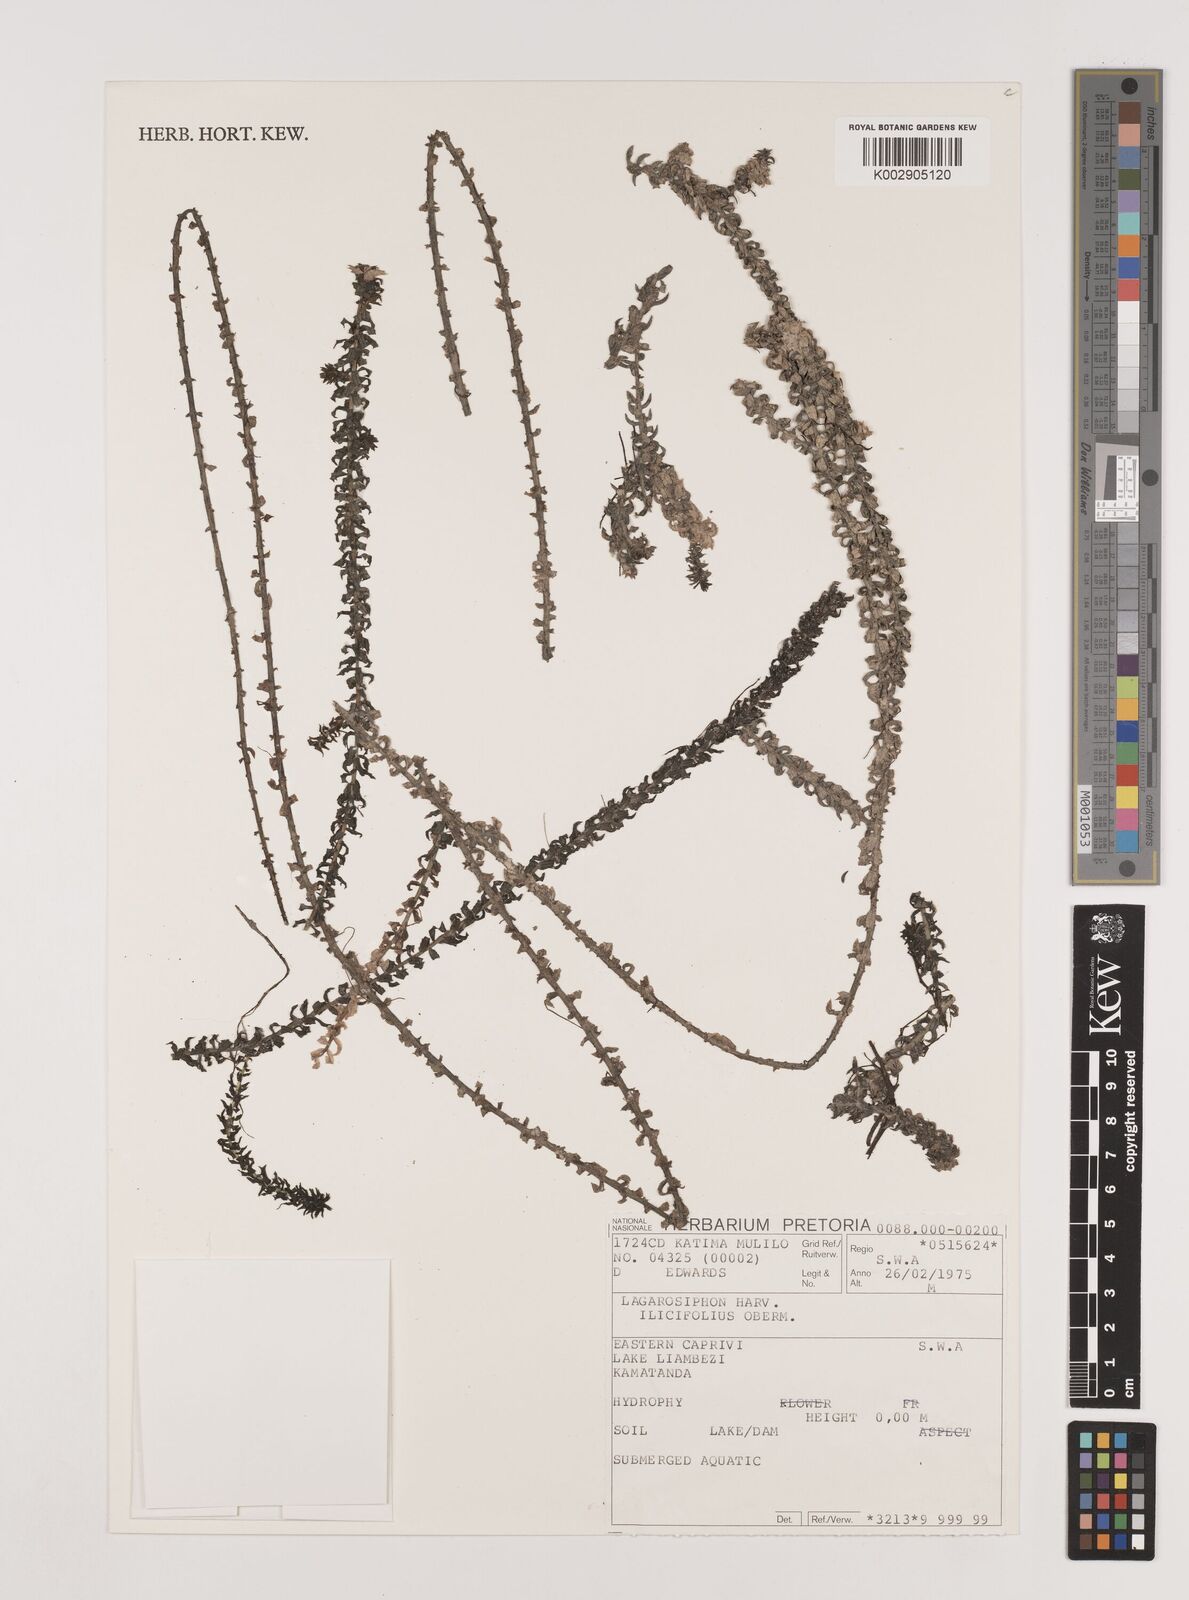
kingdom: Plantae
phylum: Tracheophyta
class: Liliopsida
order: Alismatales
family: Hydrocharitaceae
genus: Lagarosiphon
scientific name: Lagarosiphon ilicifolius
